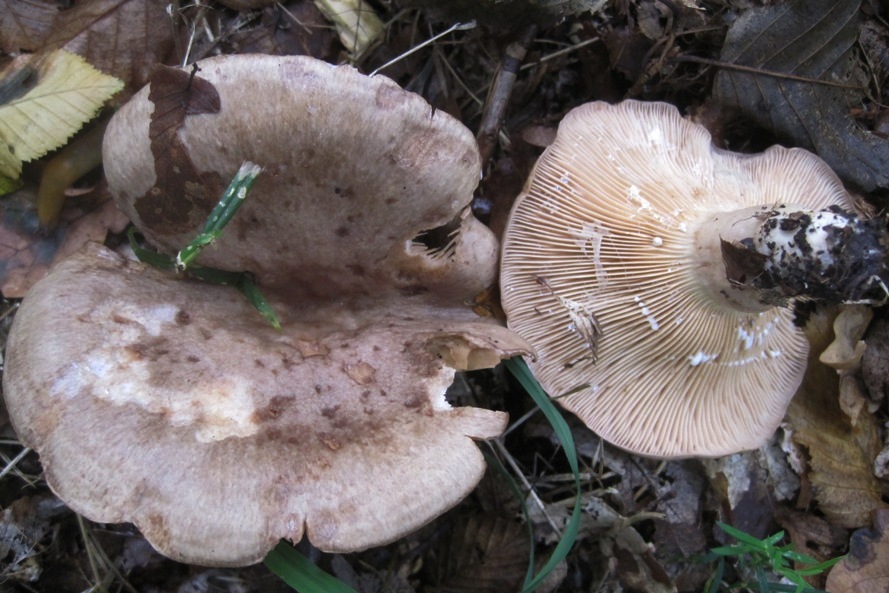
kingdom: Fungi
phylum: Basidiomycota
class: Agaricomycetes
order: Russulales
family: Russulaceae
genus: Lactarius
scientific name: Lactarius circellatus
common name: avnbøg-mælkehat
